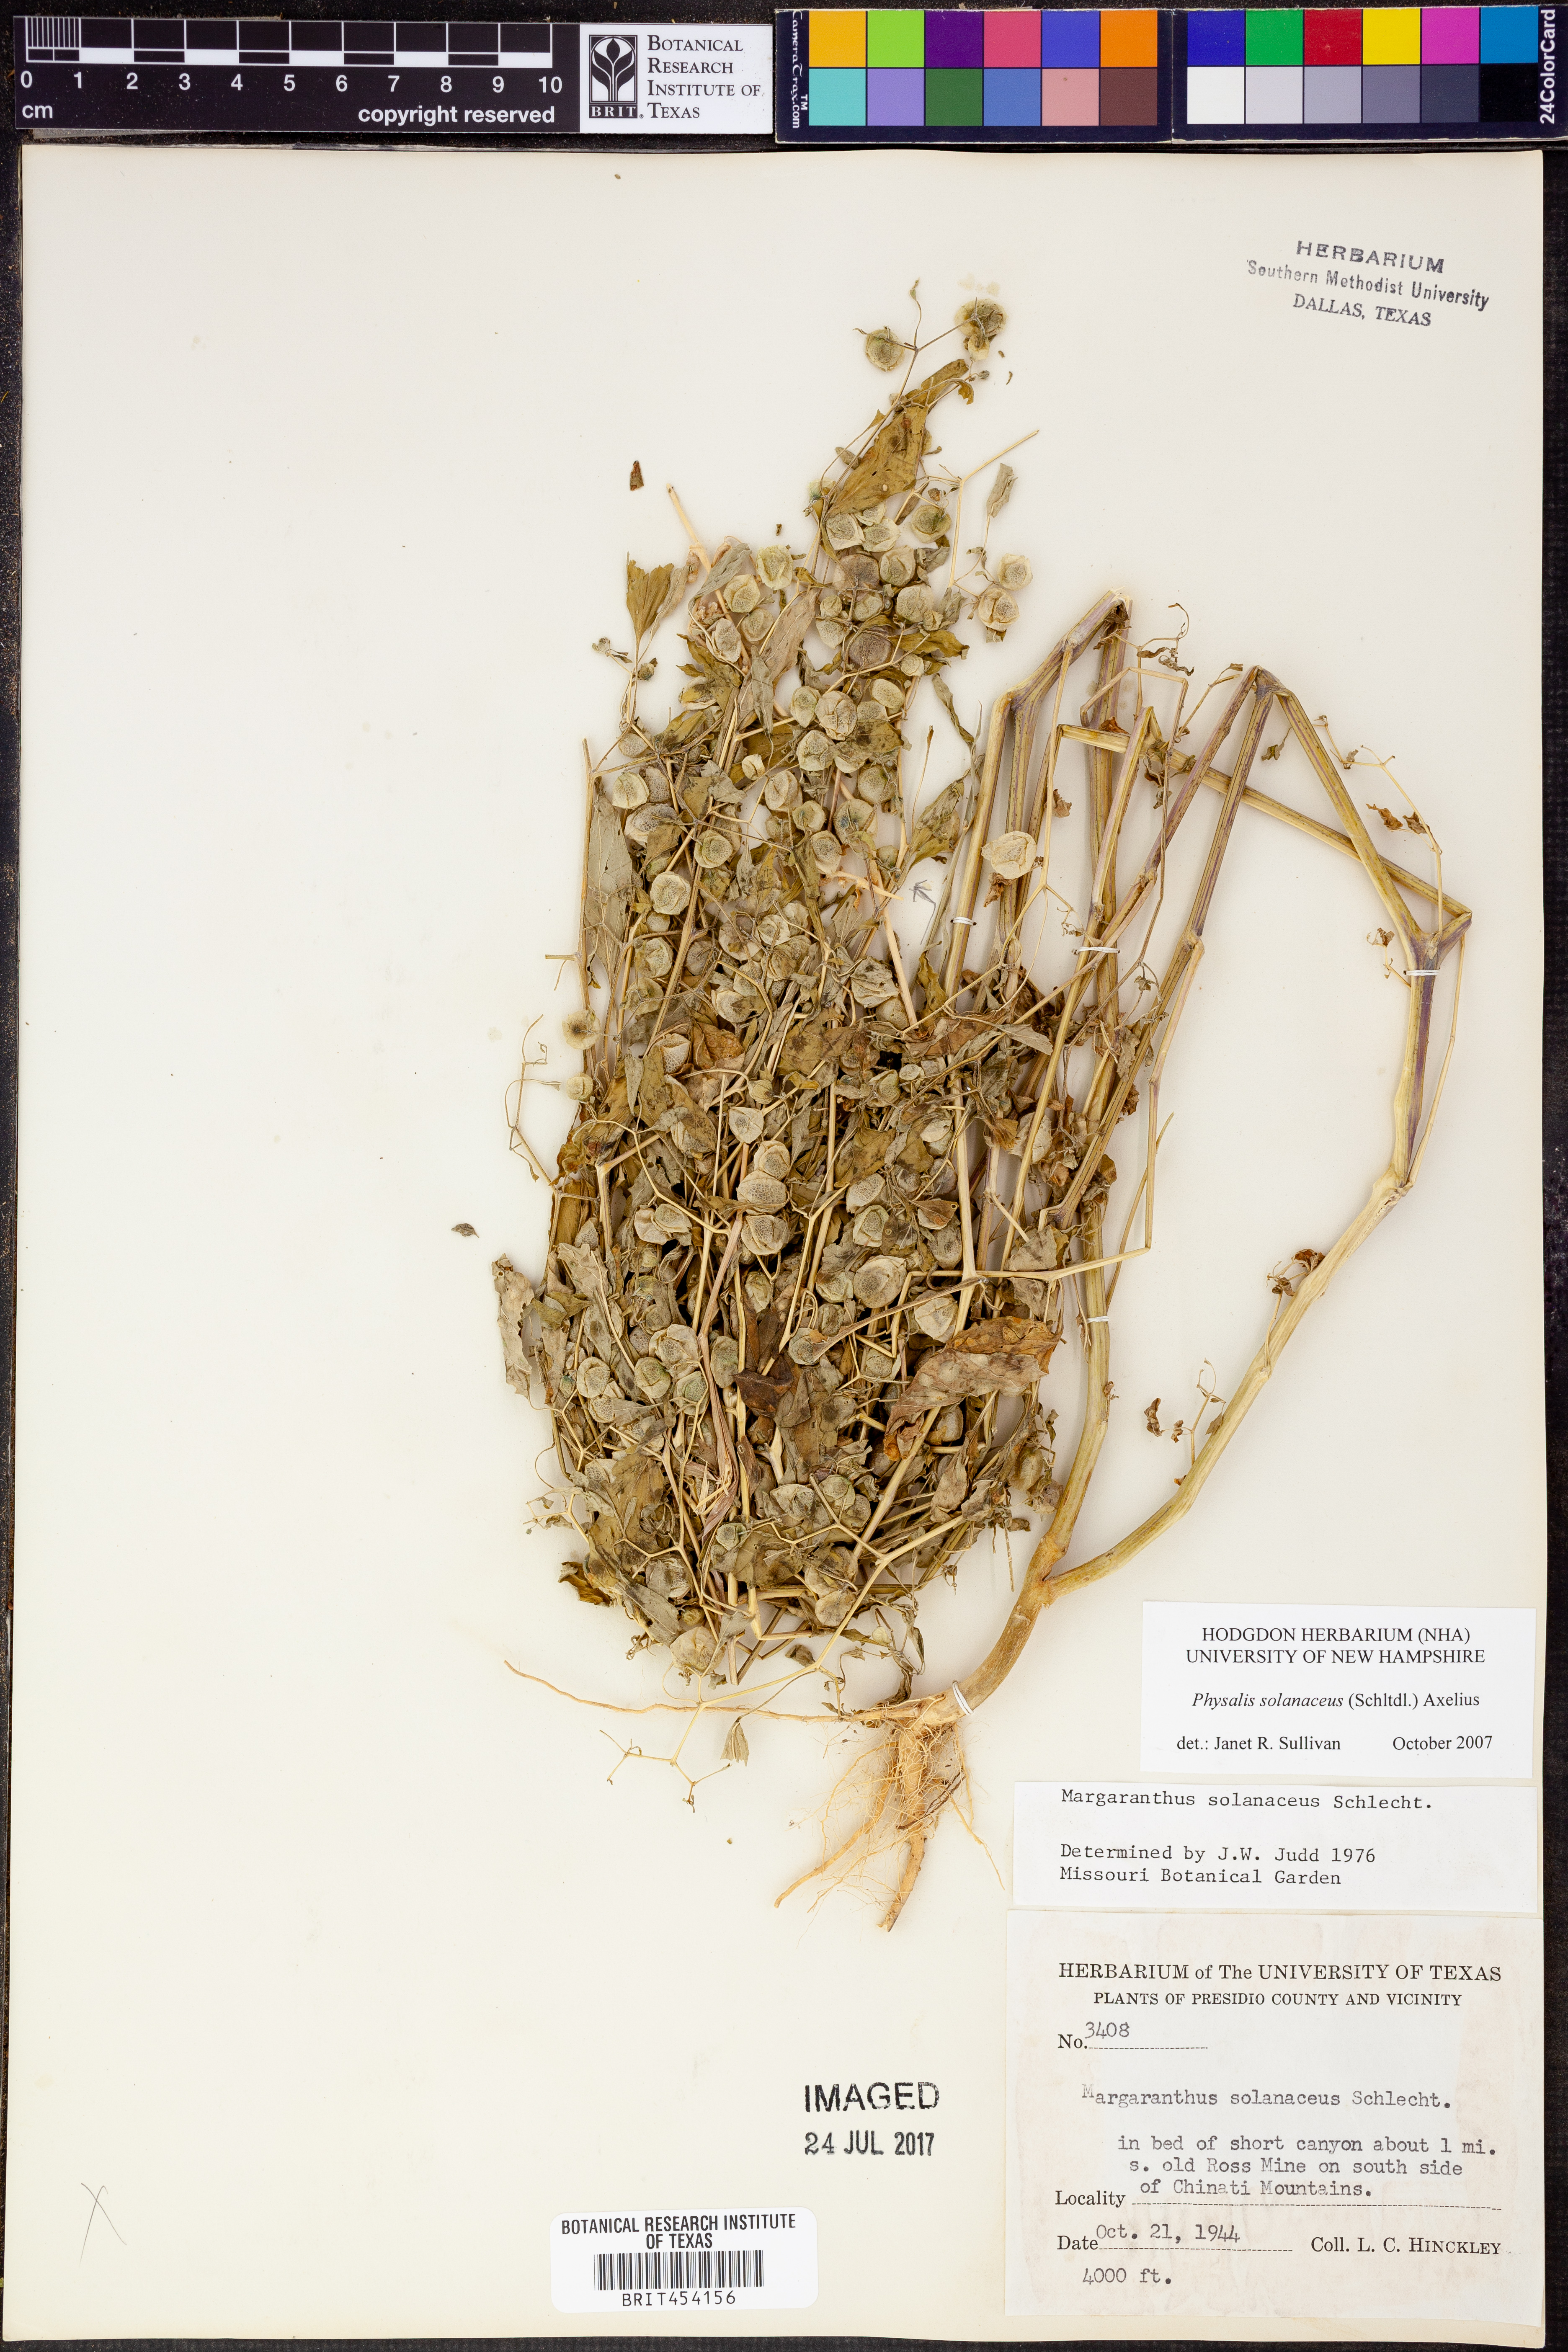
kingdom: Plantae
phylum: Tracheophyta
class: Magnoliopsida
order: Solanales
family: Solanaceae
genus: Physalis
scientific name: Physalis solanacea
